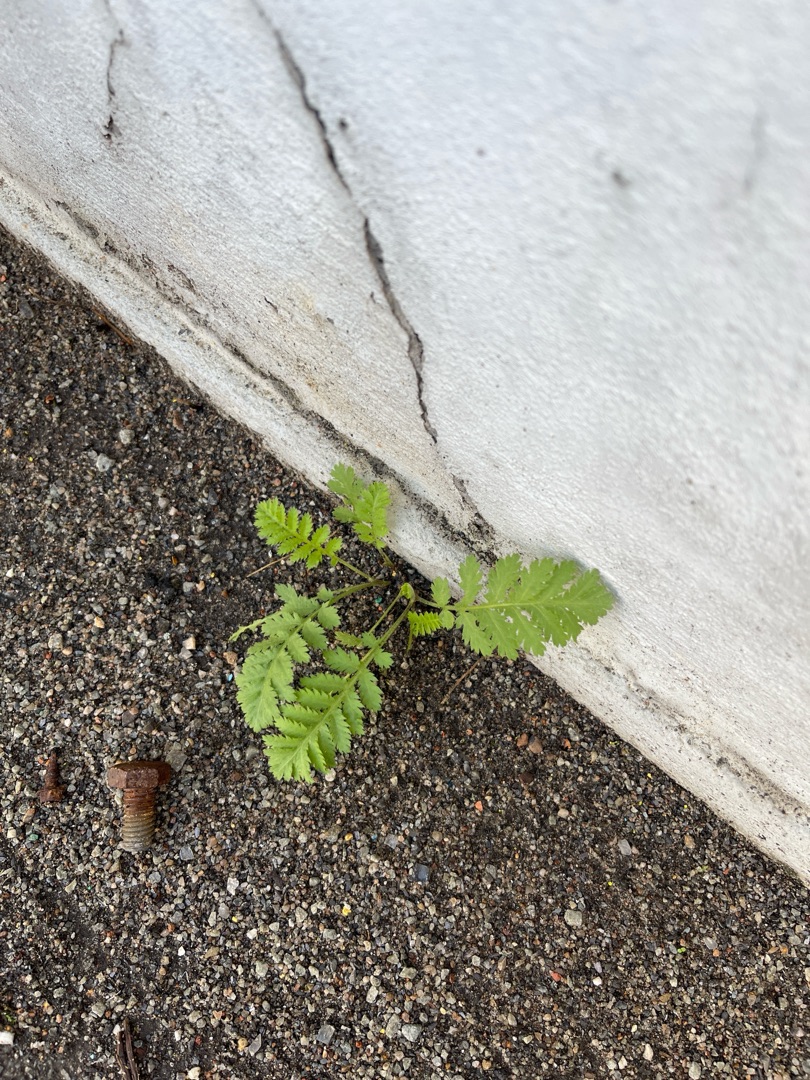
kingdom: Plantae
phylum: Tracheophyta
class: Magnoliopsida
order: Asterales
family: Asteraceae
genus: Tanacetum
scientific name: Tanacetum vulgare
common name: Rejnfan
